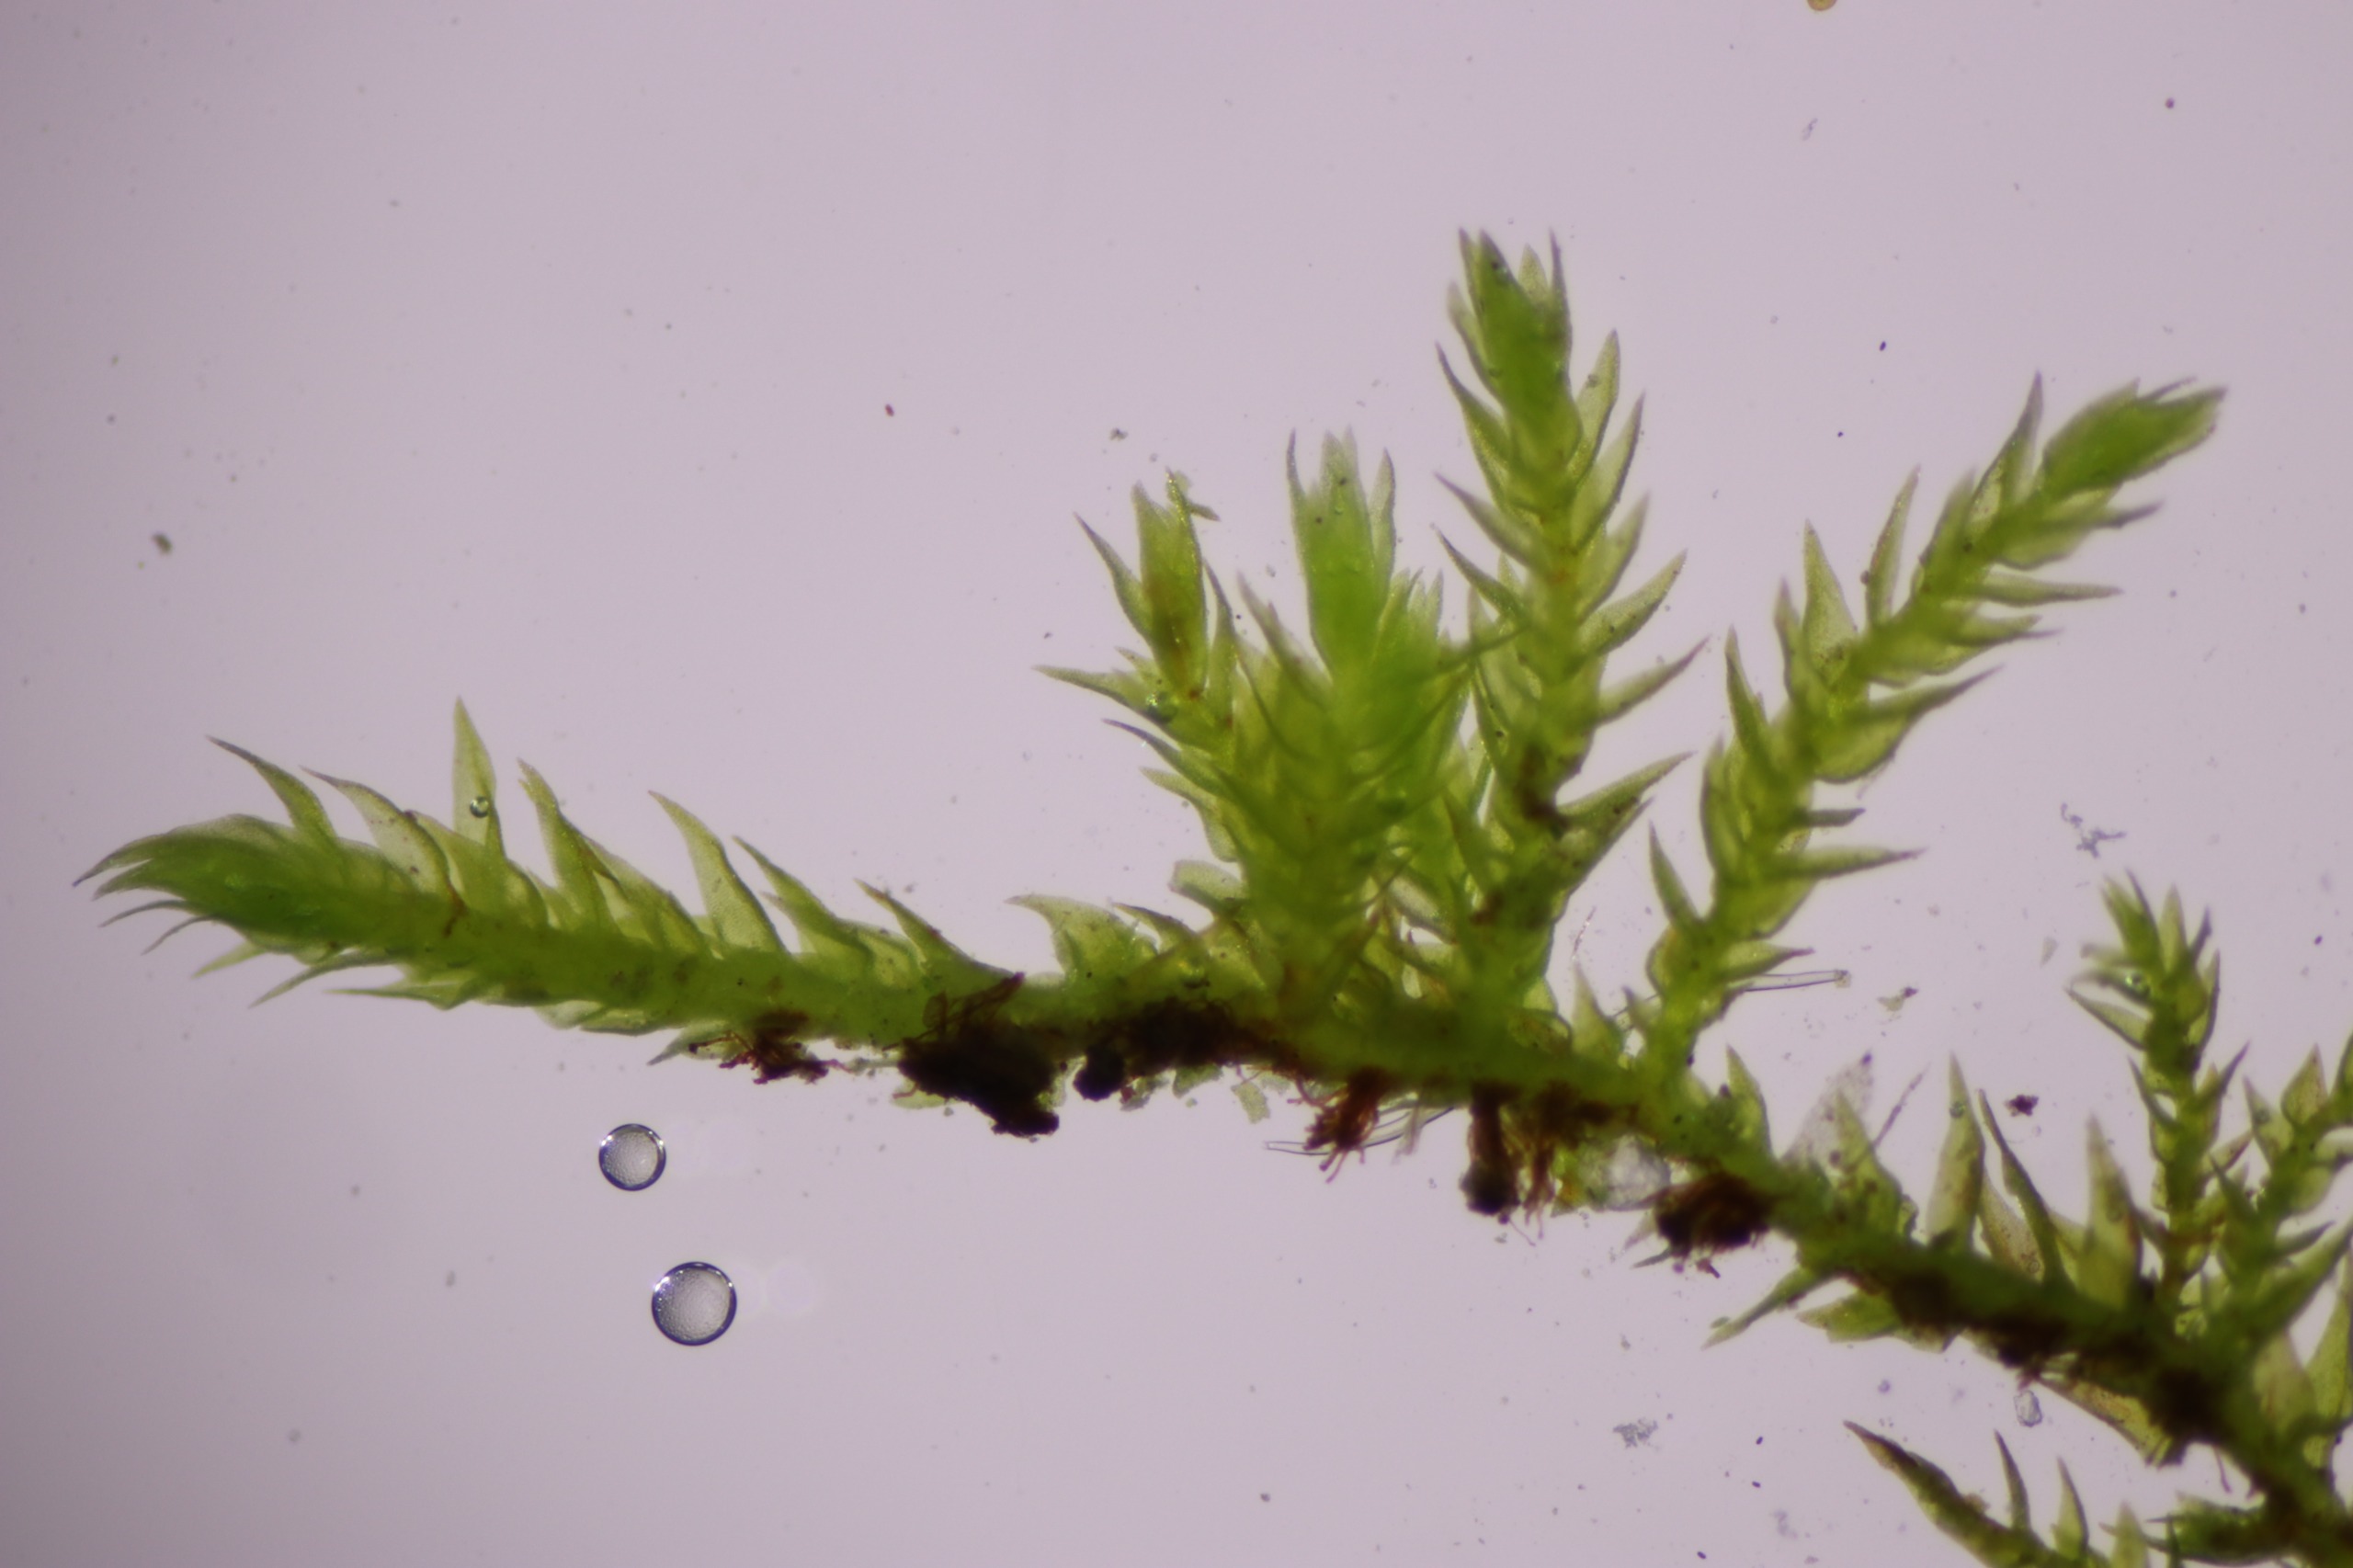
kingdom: Plantae
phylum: Bryophyta
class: Bryopsida
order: Hypnales
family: Leskeaceae
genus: Leskea
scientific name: Leskea polycarpa
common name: Mat lærkemos
